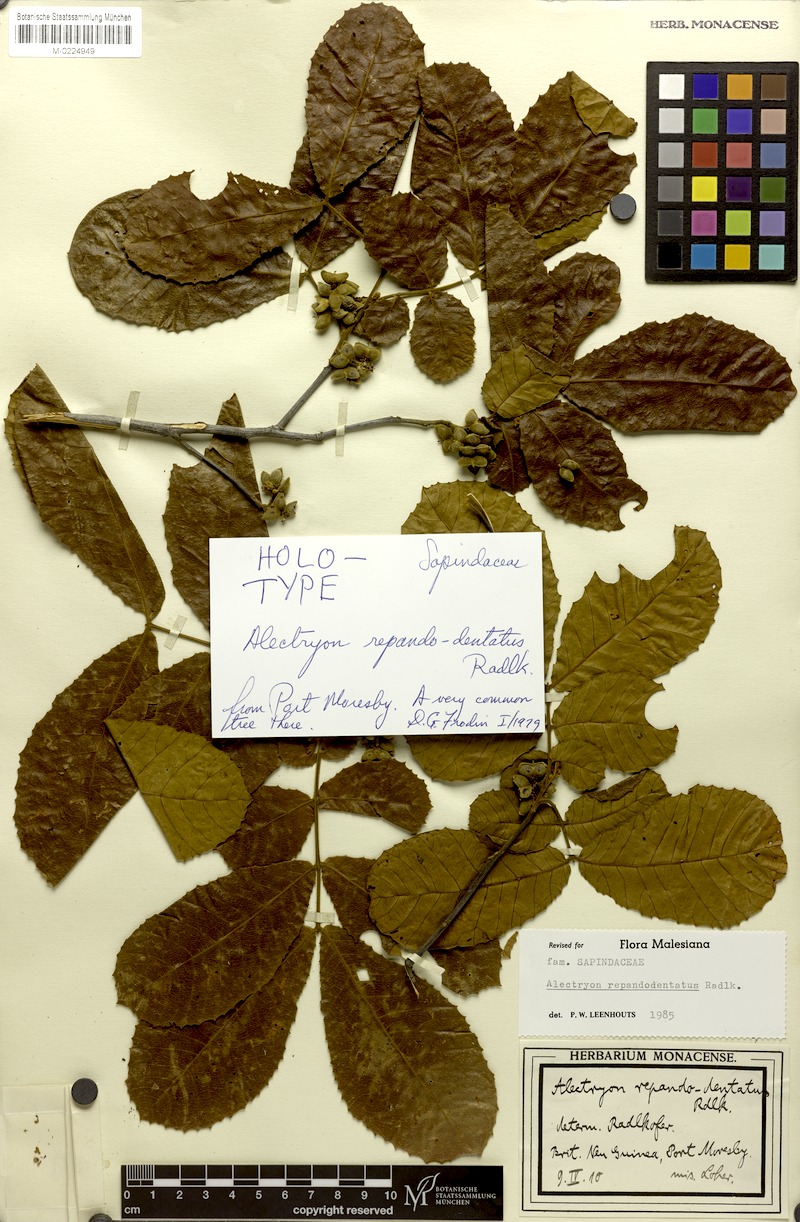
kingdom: Plantae
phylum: Tracheophyta
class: Magnoliopsida
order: Sapindales
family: Sapindaceae
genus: Alectryon
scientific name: Alectryon repandodentatus
